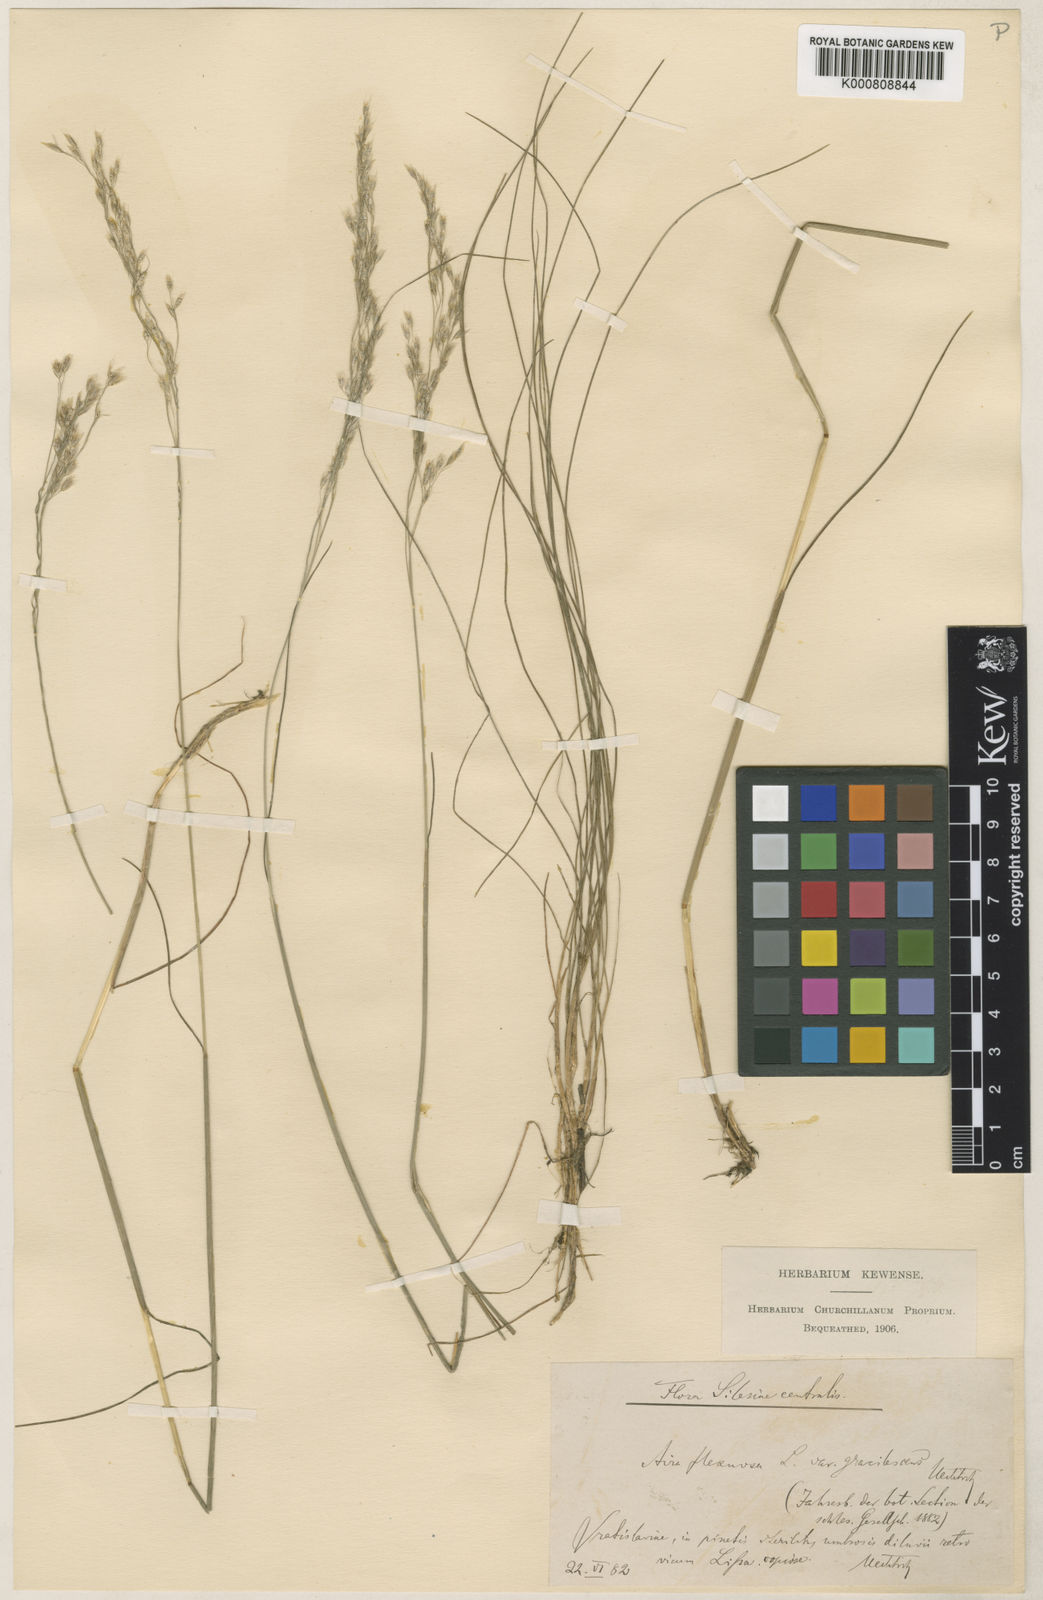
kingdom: Plantae
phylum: Tracheophyta
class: Liliopsida
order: Poales
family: Poaceae
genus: Avenella
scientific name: Avenella flexuosa
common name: Wavy hairgrass
